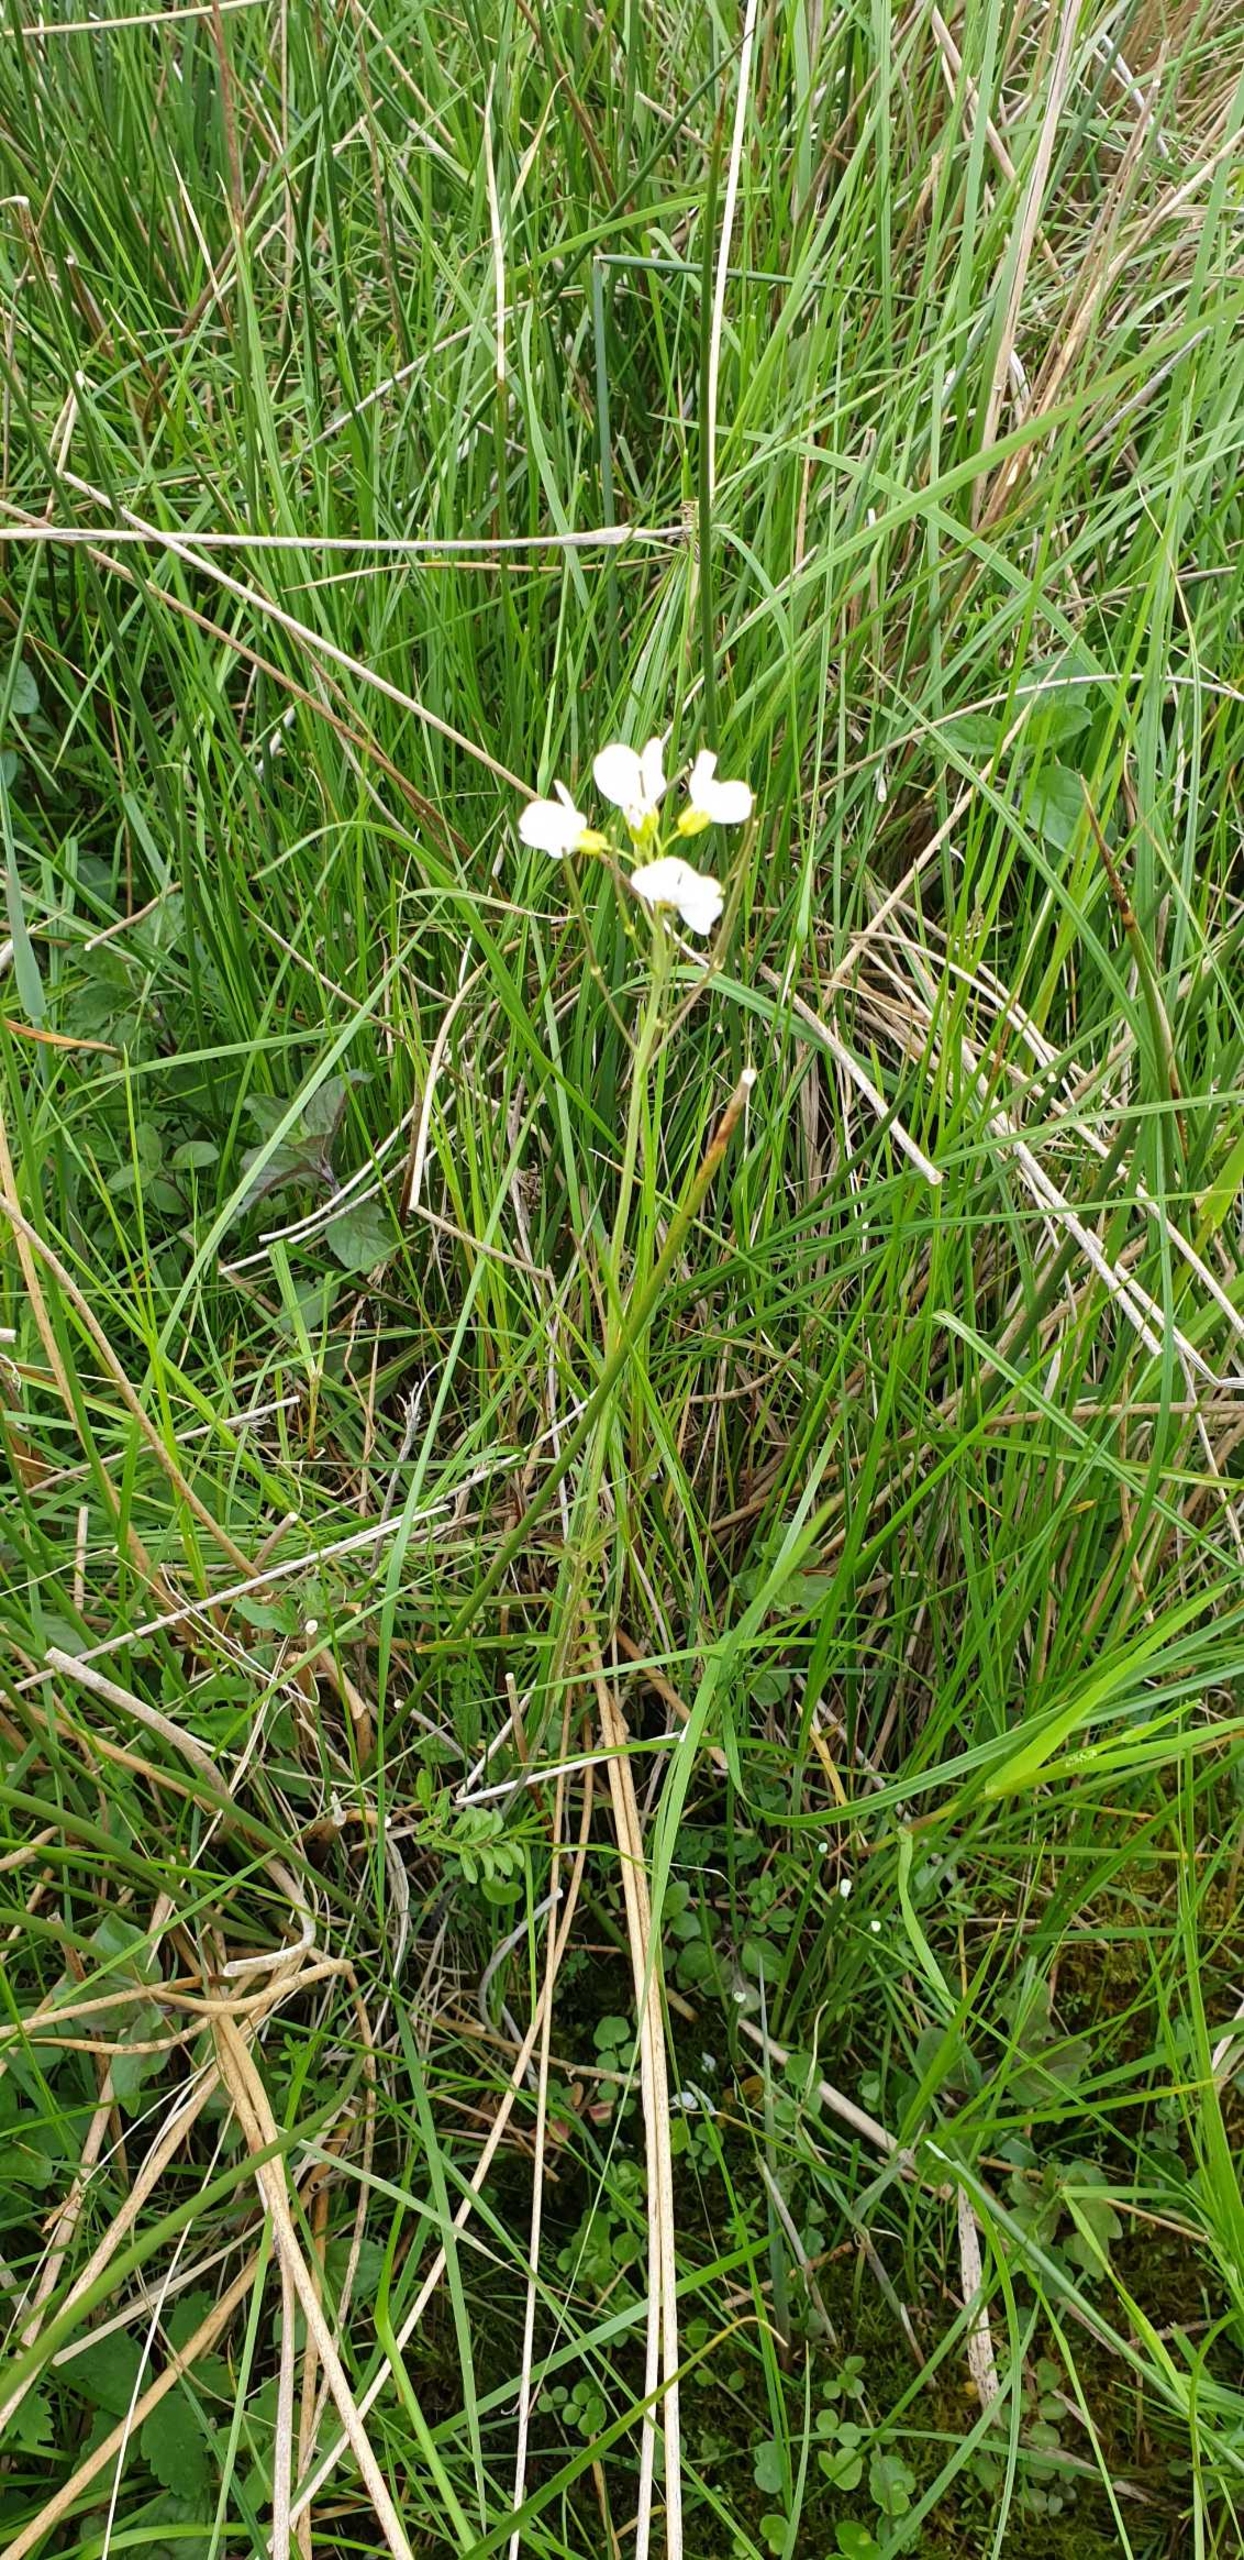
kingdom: Plantae
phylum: Tracheophyta
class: Magnoliopsida
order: Brassicales
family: Brassicaceae
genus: Cardamine
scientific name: Cardamine pratensis
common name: Engkarse
